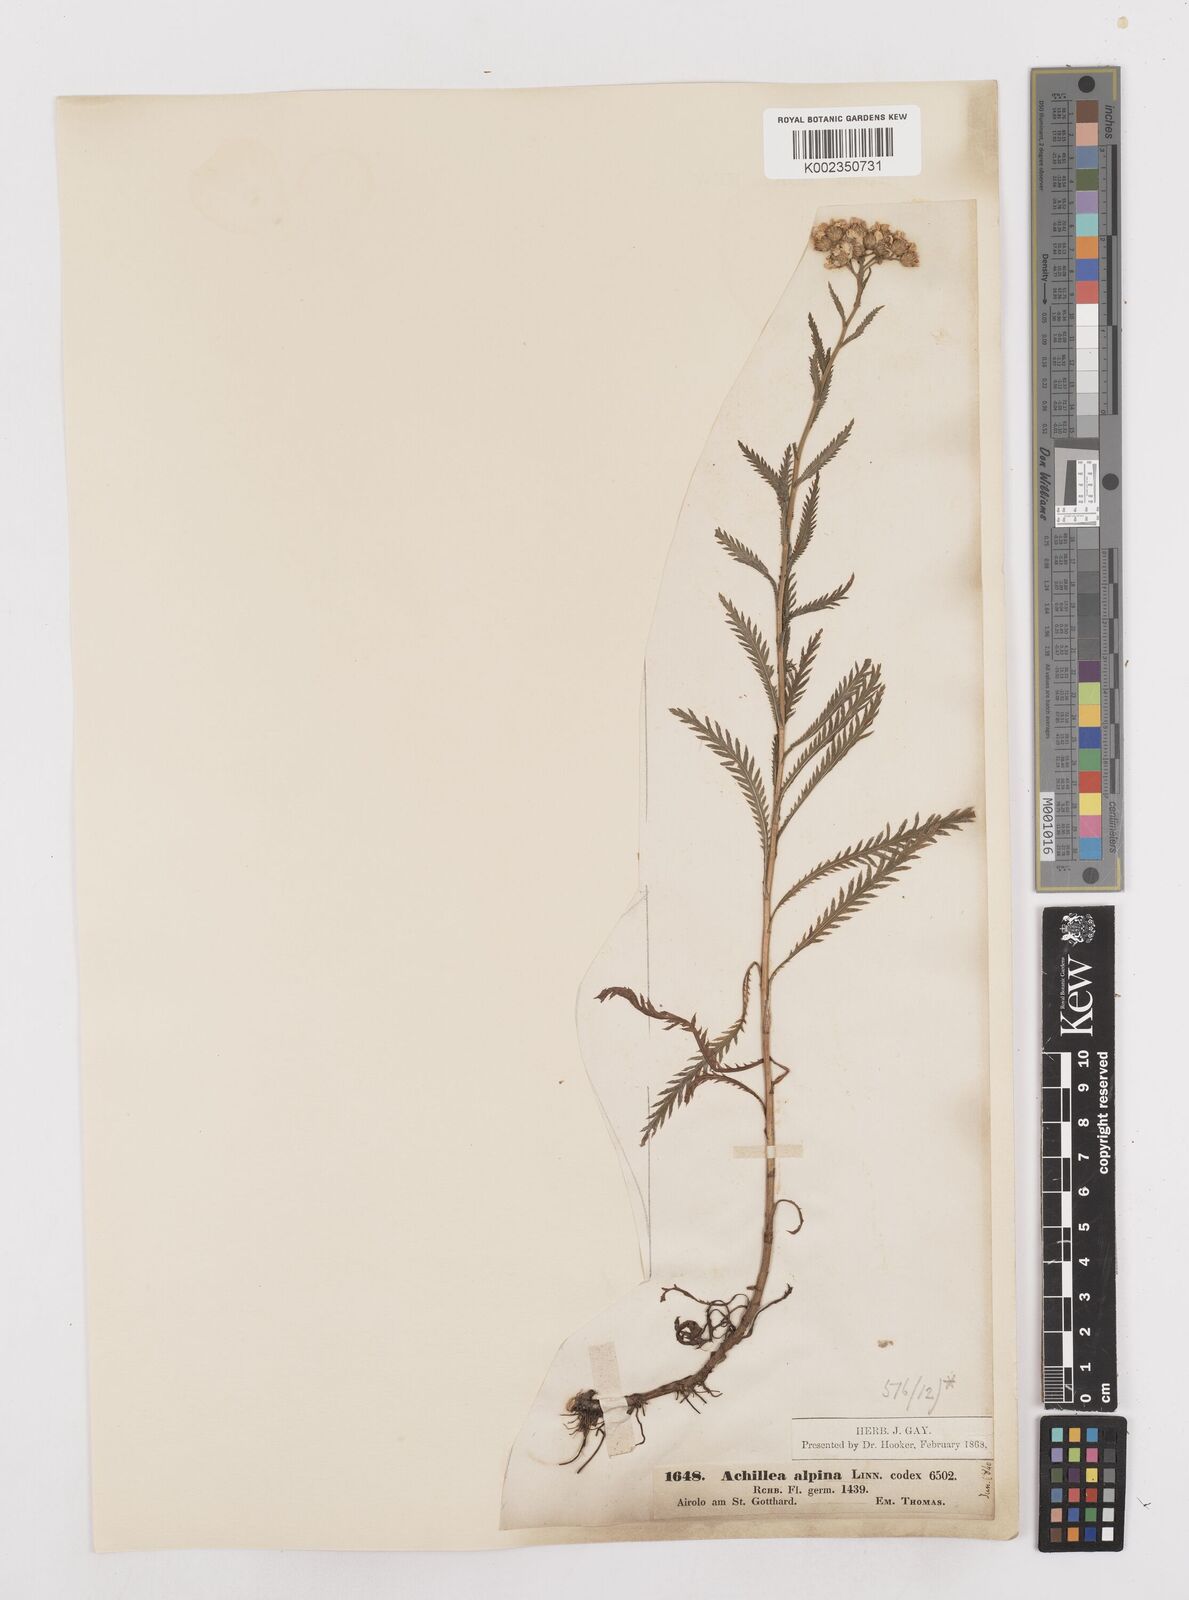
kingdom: Plantae
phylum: Tracheophyta
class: Magnoliopsida
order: Asterales
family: Asteraceae
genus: Achillea
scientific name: Achillea impatiens
